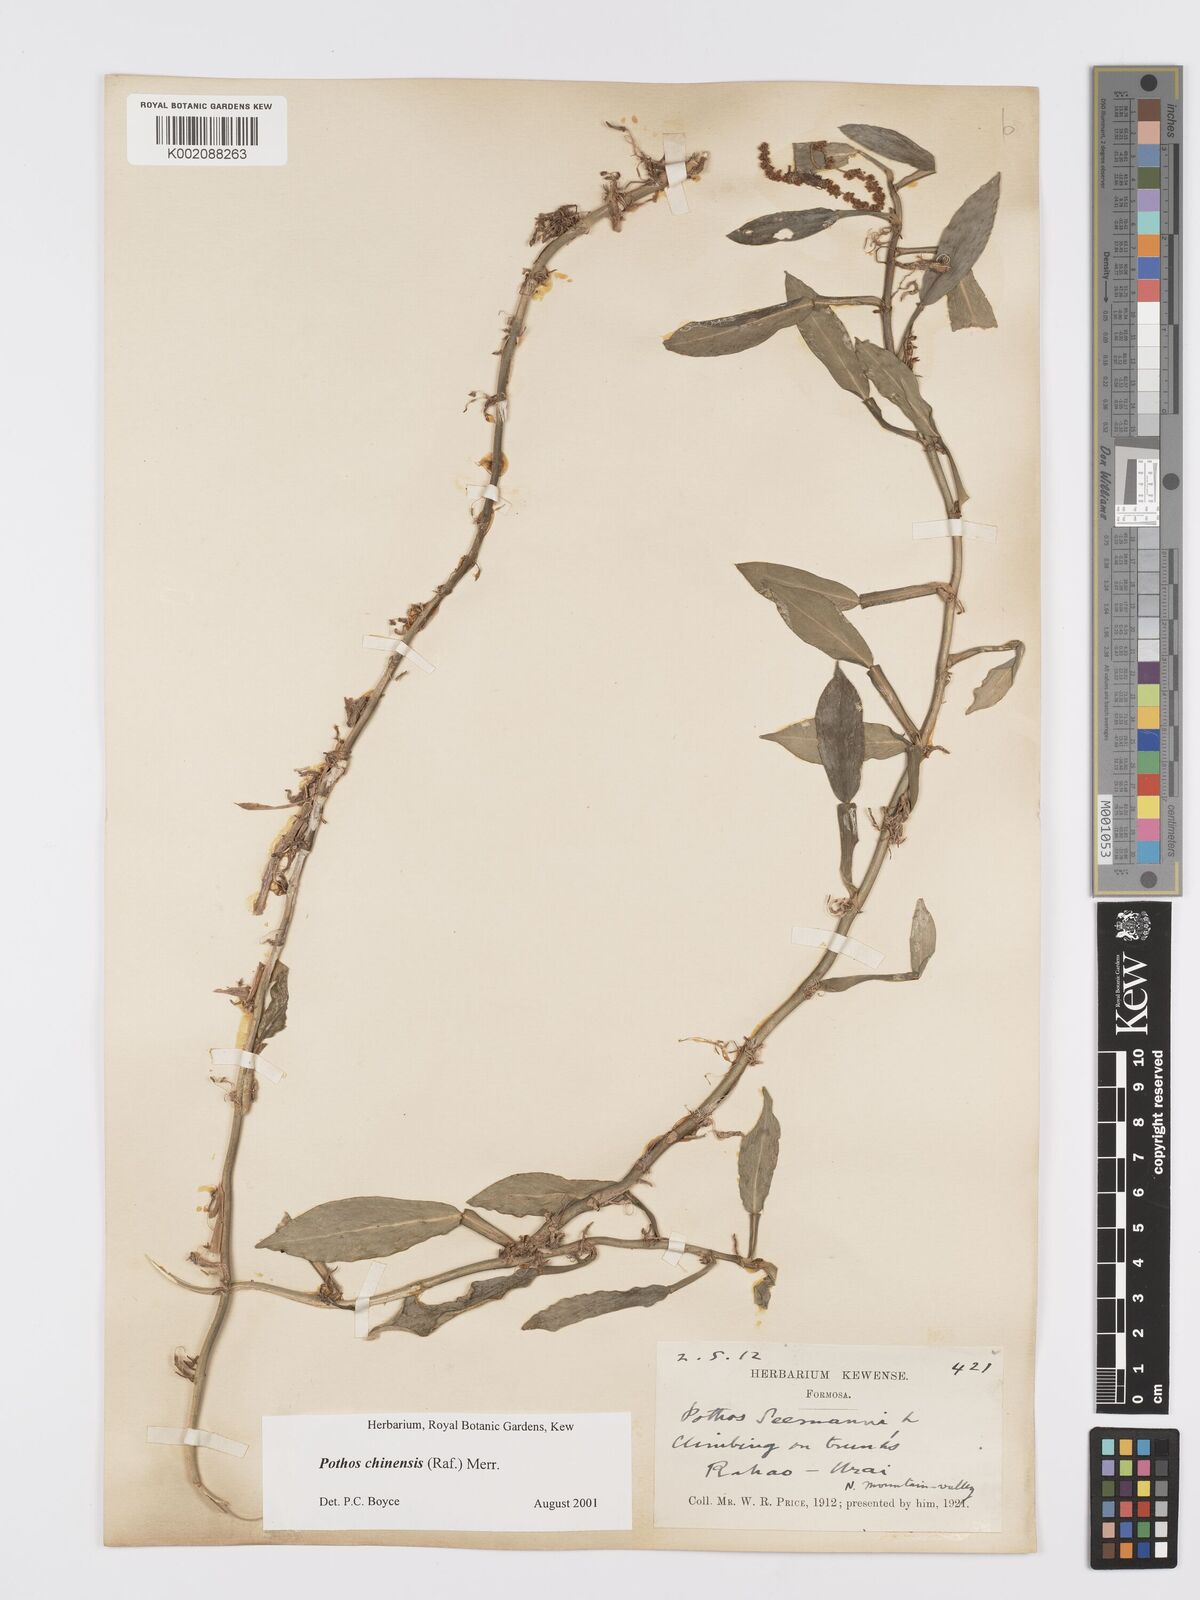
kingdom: Plantae
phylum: Tracheophyta
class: Liliopsida
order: Alismatales
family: Araceae
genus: Pothos
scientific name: Pothos chinensis
